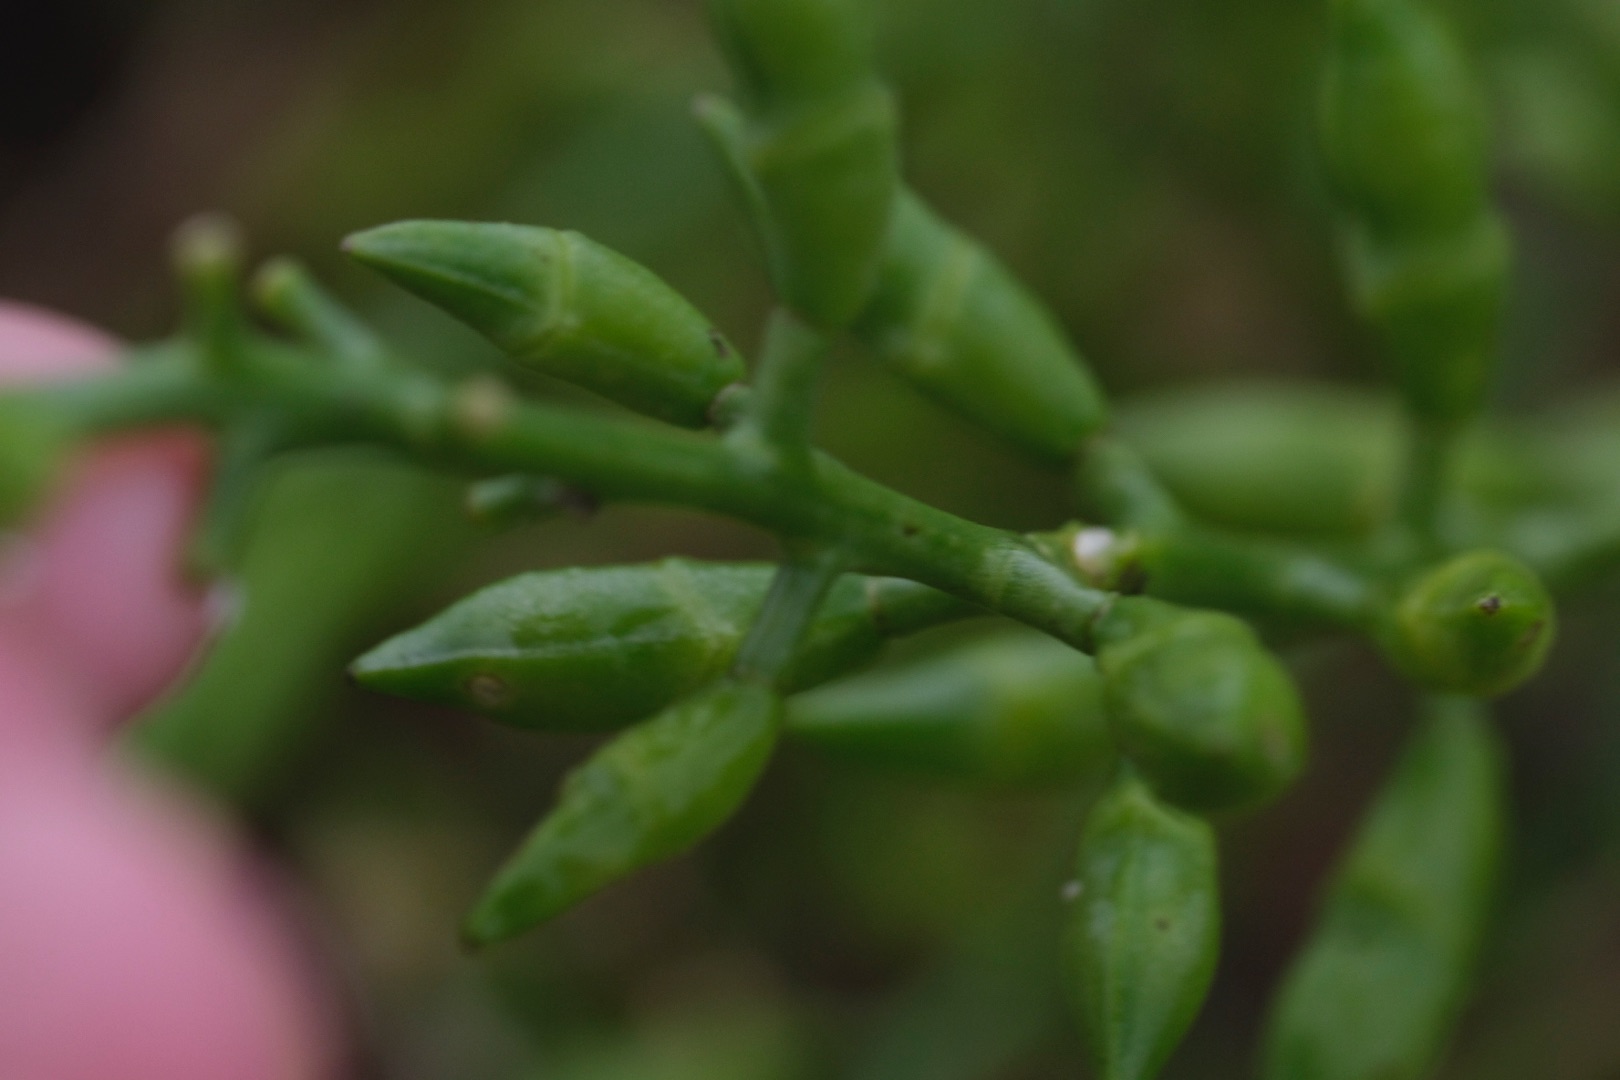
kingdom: Plantae
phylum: Tracheophyta
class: Magnoliopsida
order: Brassicales
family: Brassicaceae
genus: Cakile
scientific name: Cakile maritima
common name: Strandsennep
